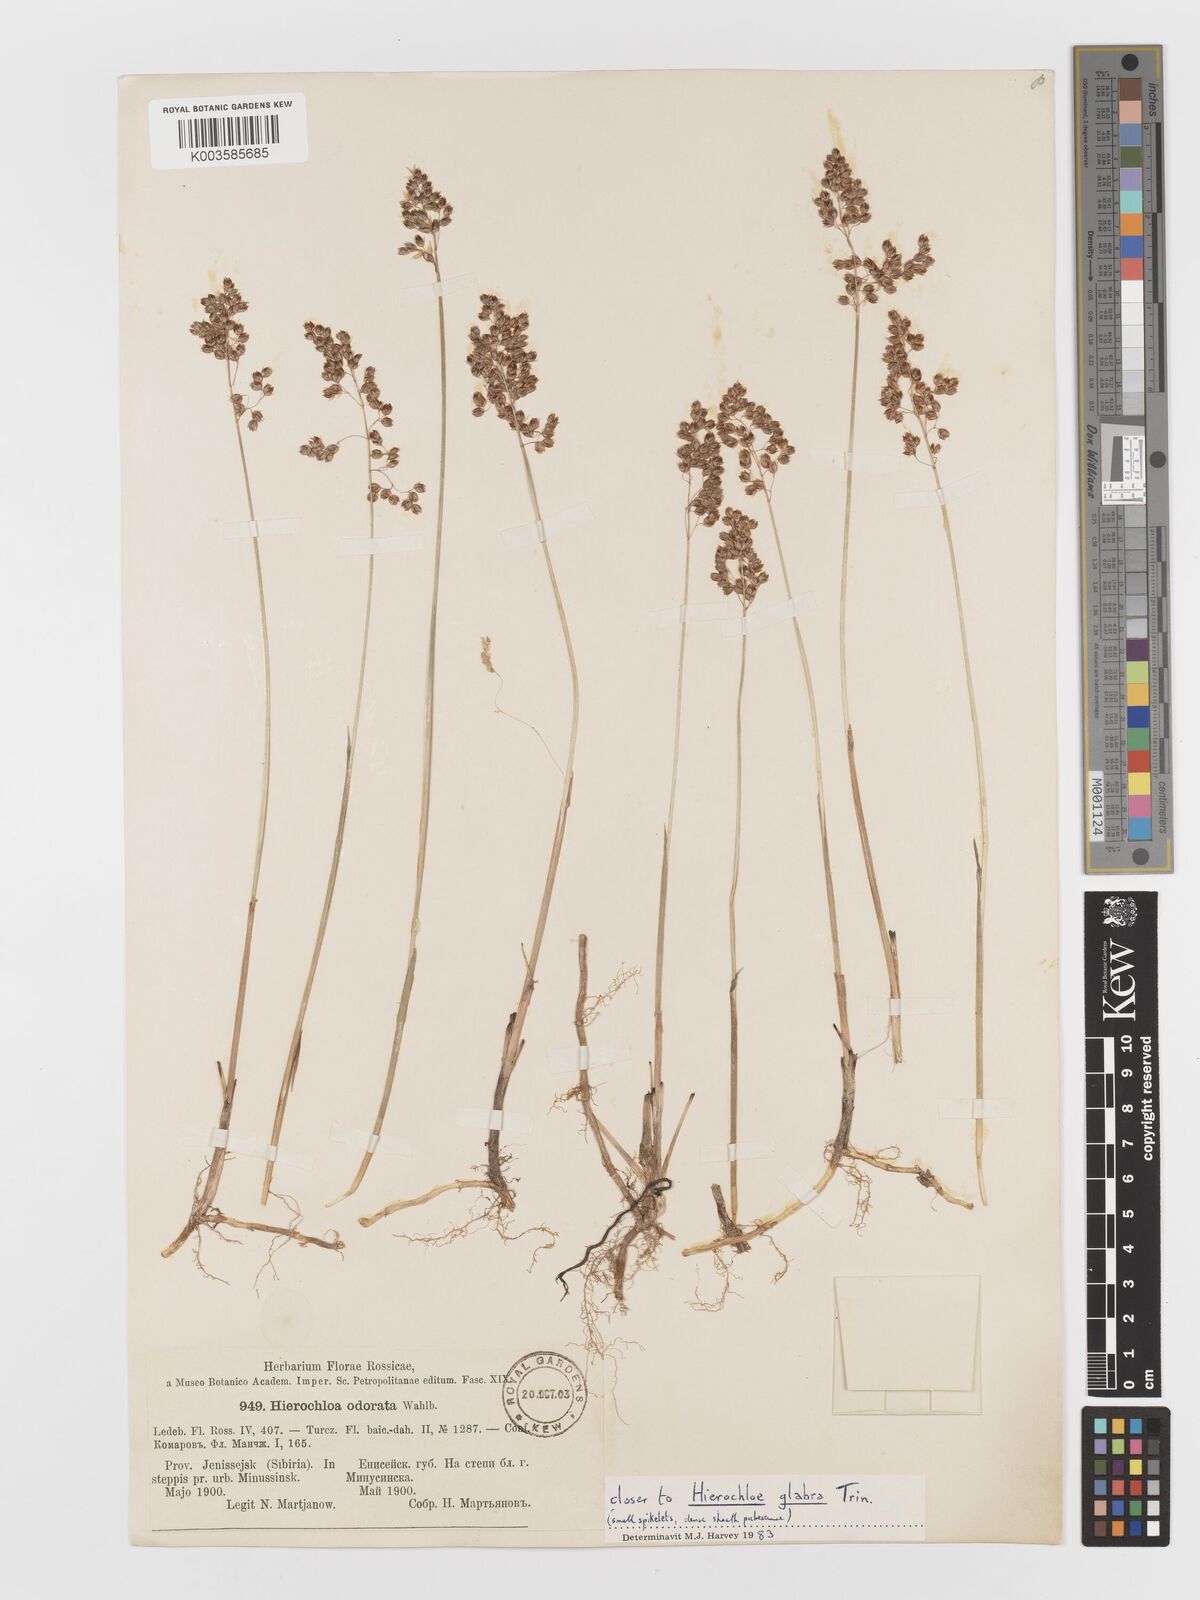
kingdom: Plantae
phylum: Tracheophyta
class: Liliopsida
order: Poales
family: Poaceae
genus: Anthoxanthum
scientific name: Anthoxanthum glabrum
